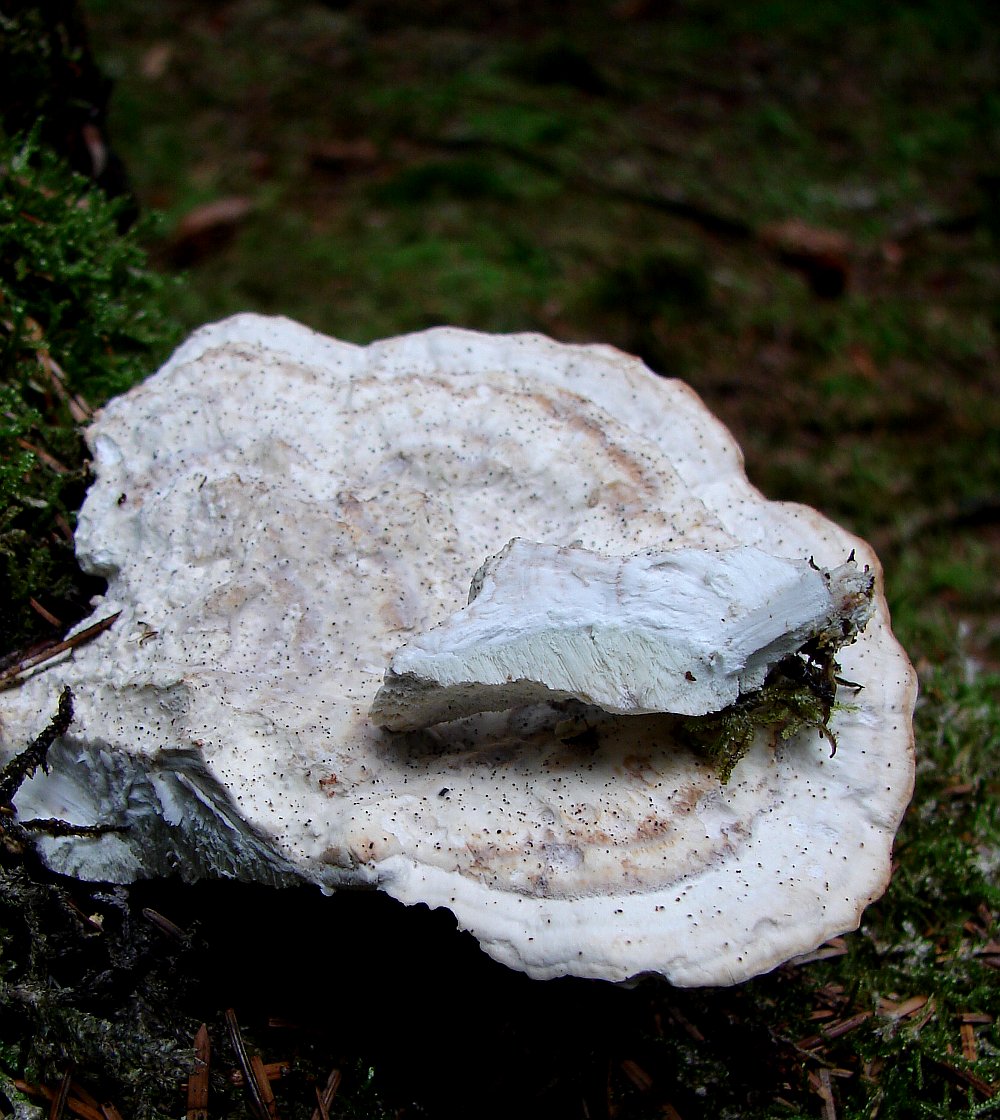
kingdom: Fungi
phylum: Basidiomycota
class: Agaricomycetes
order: Polyporales
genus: Calcipostia
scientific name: Calcipostia guttulata
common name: dråbe-kødporesvamp
